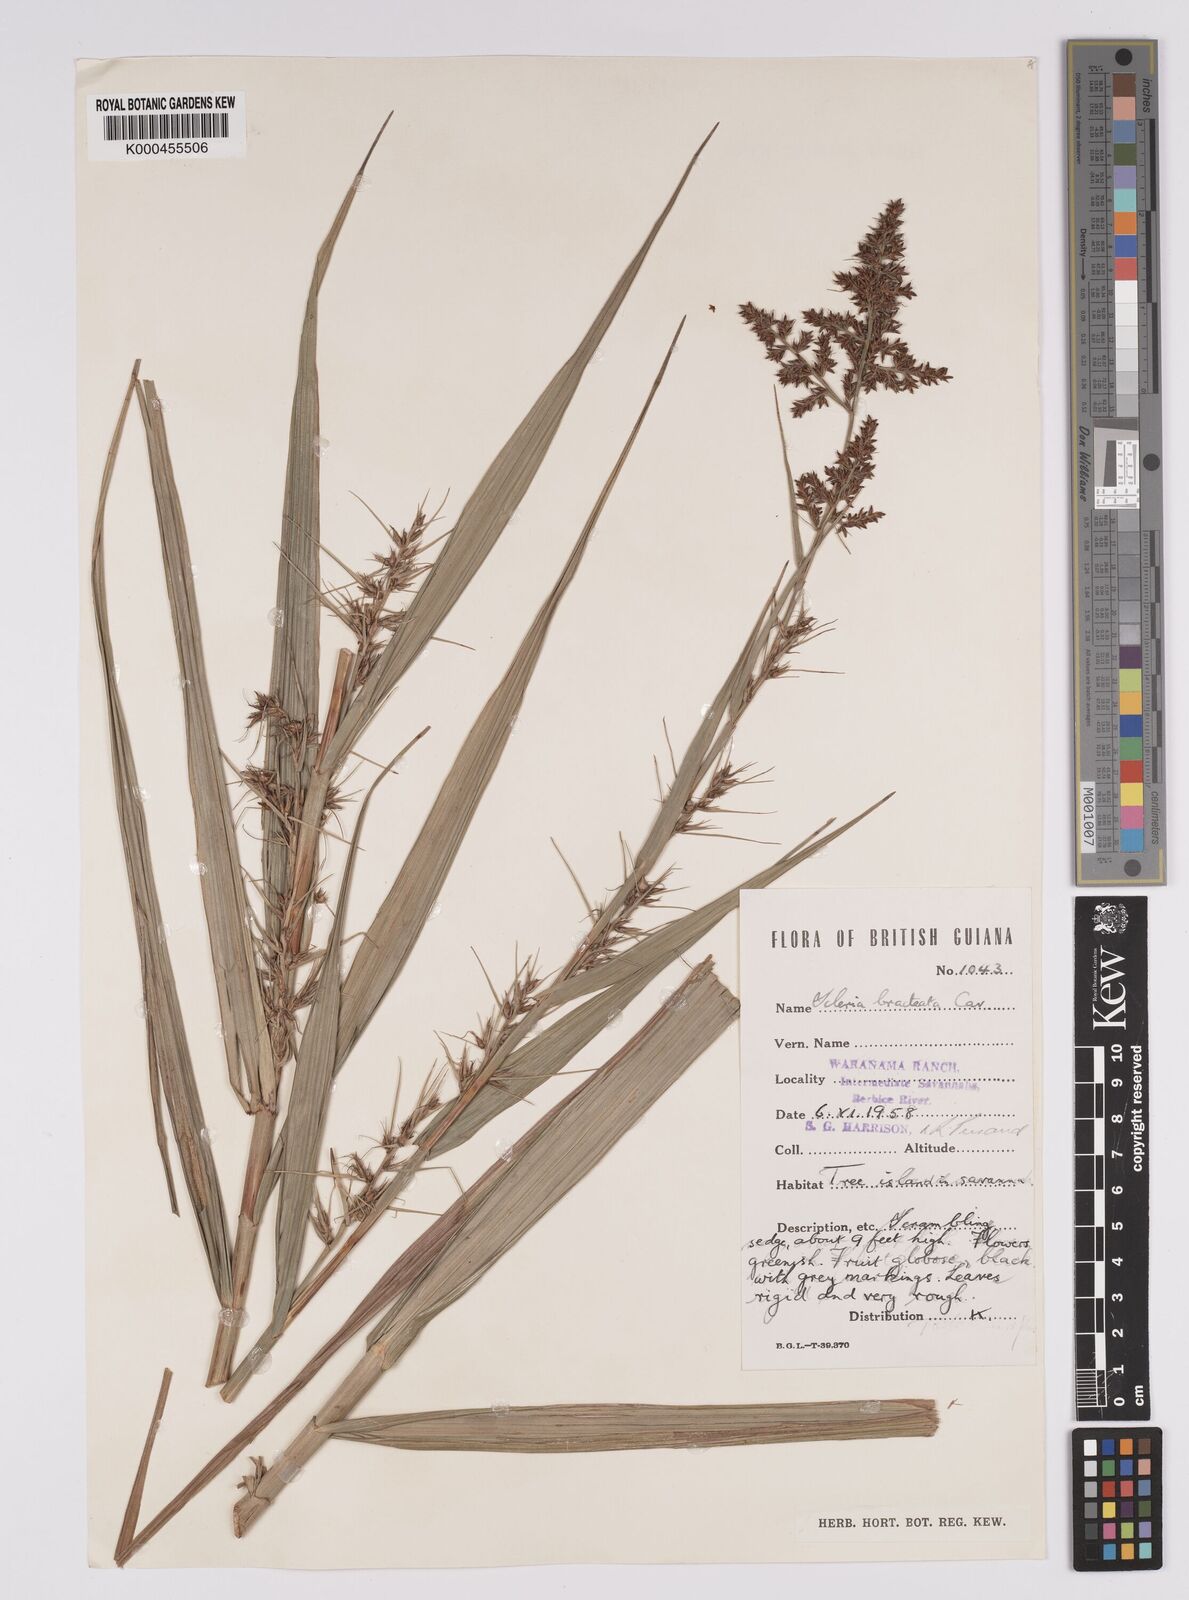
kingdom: Plantae
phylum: Tracheophyta
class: Liliopsida
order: Poales
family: Cyperaceae
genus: Scleria
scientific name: Scleria bracteata
